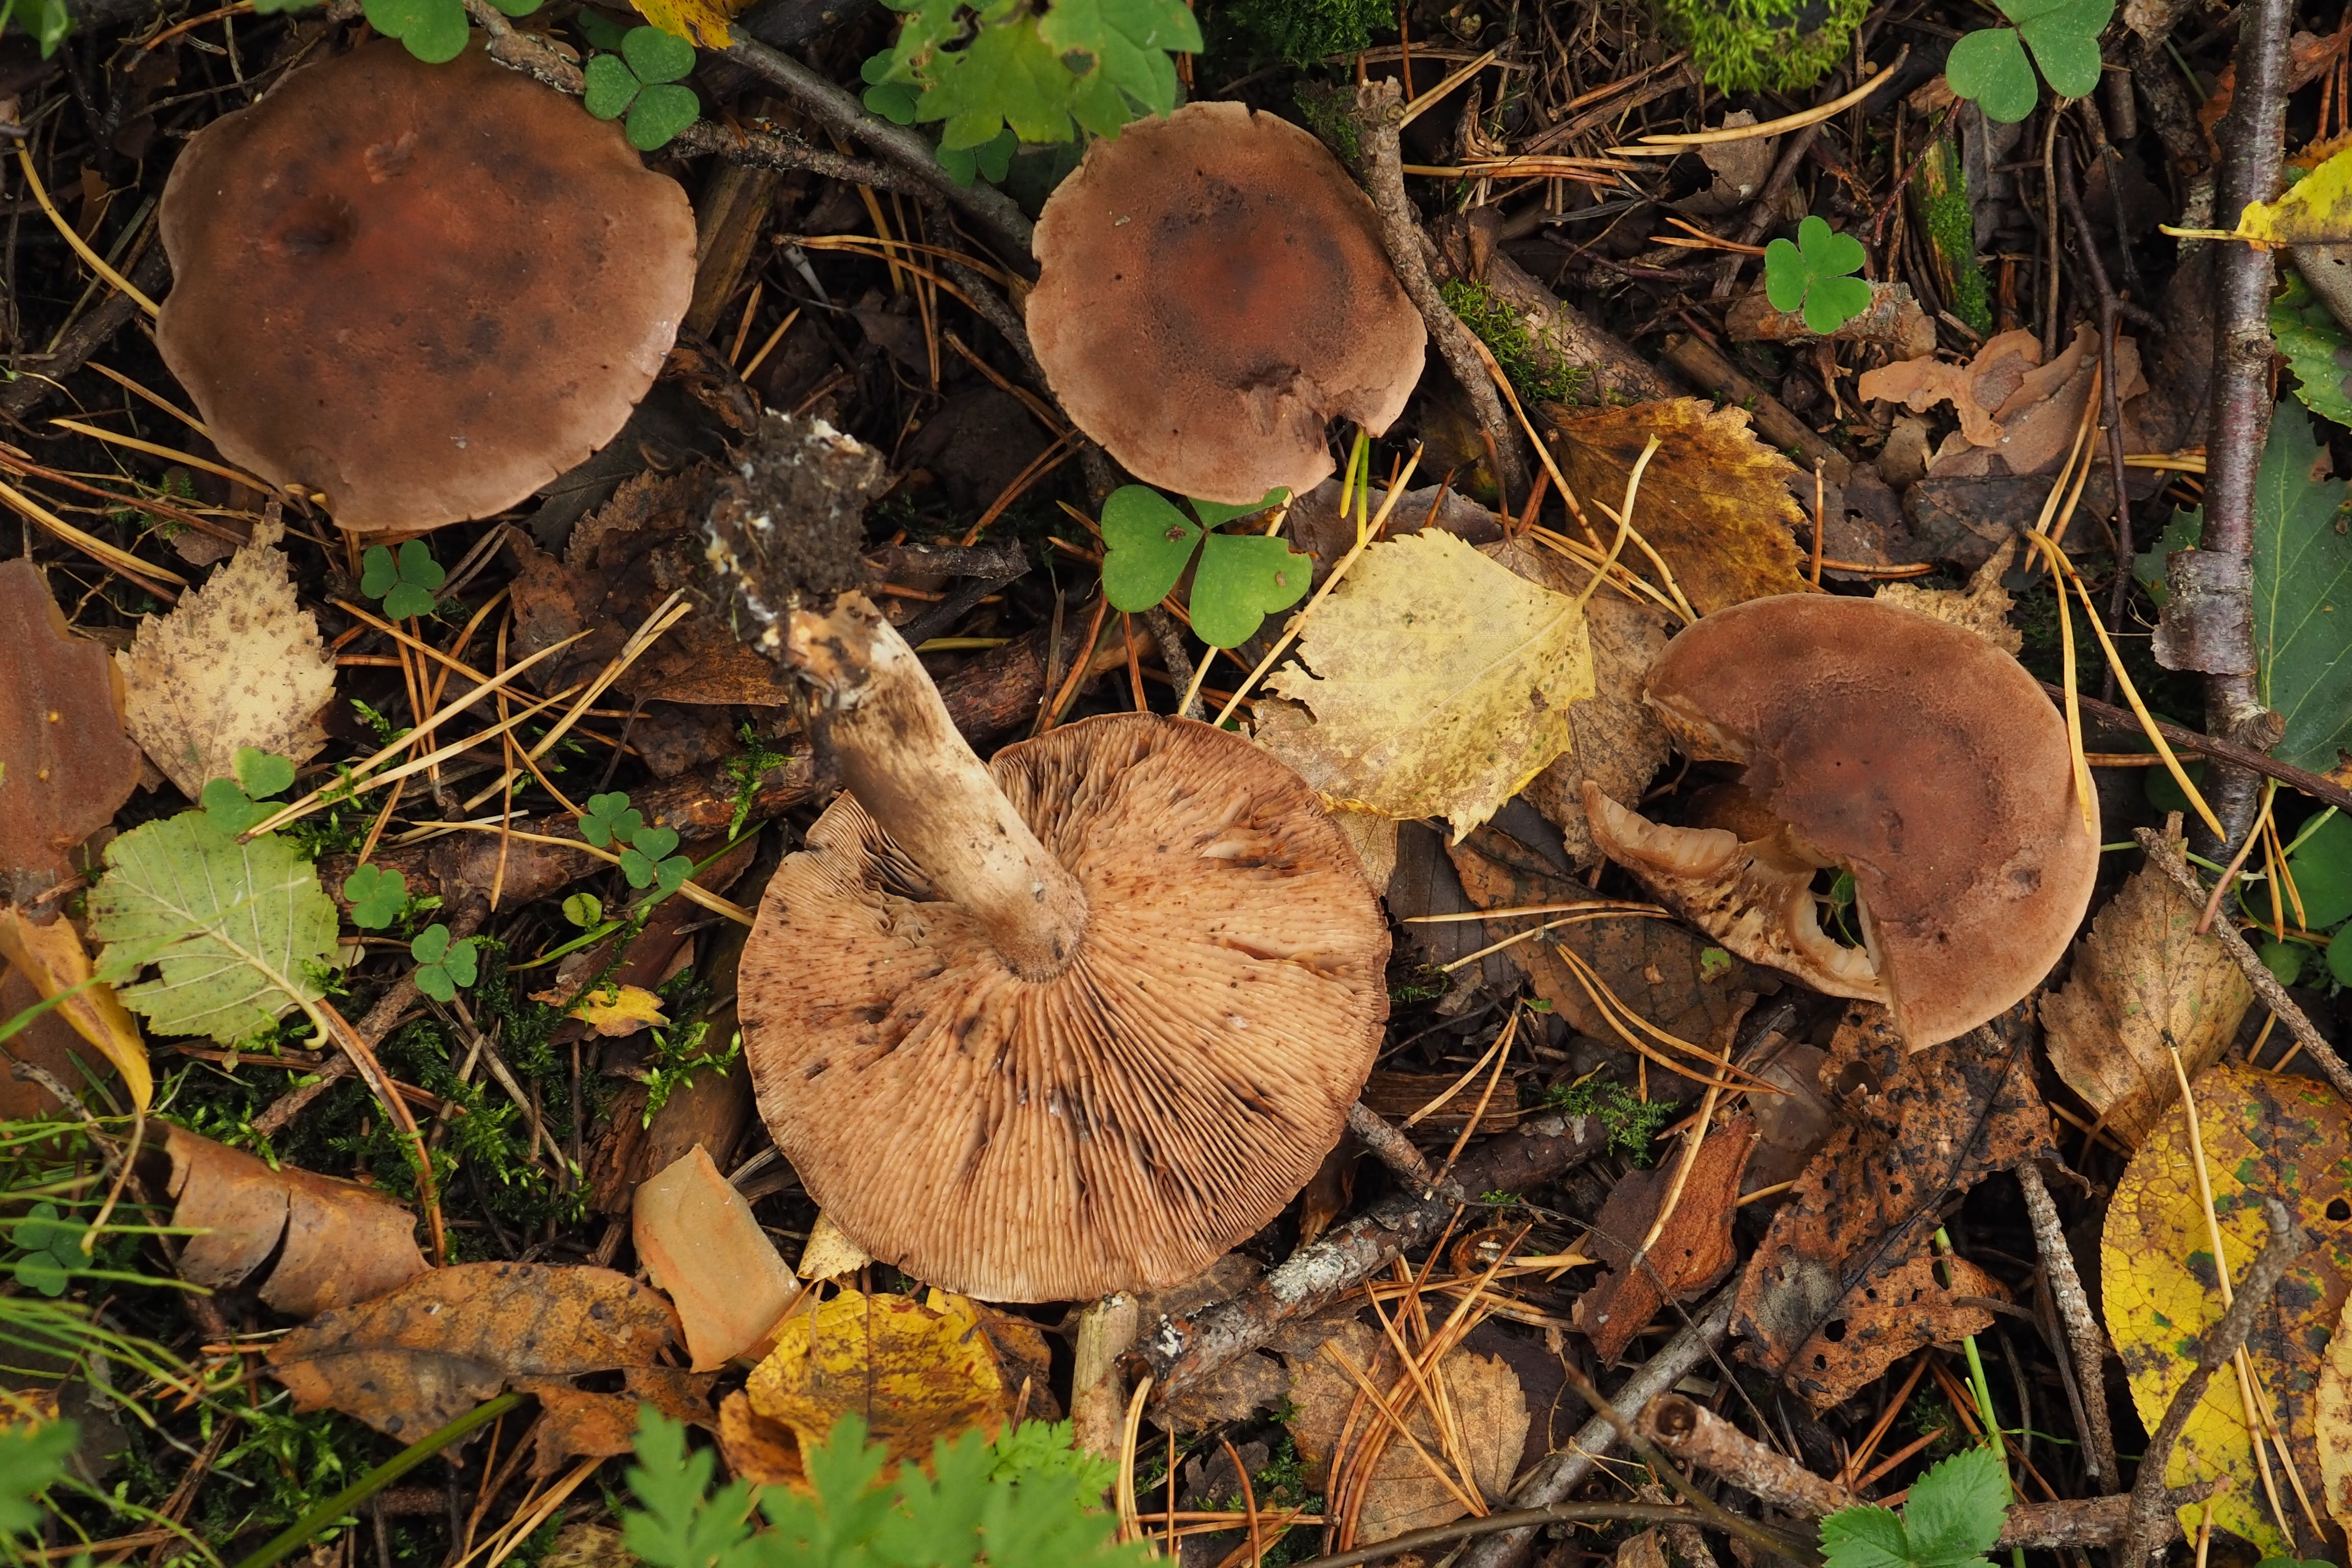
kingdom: Fungi
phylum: Basidiomycota
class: Agaricomycetes
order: Agaricales
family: Tricholomataceae
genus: Tricholoma
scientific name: Tricholoma imbricatum
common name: Matt knight
